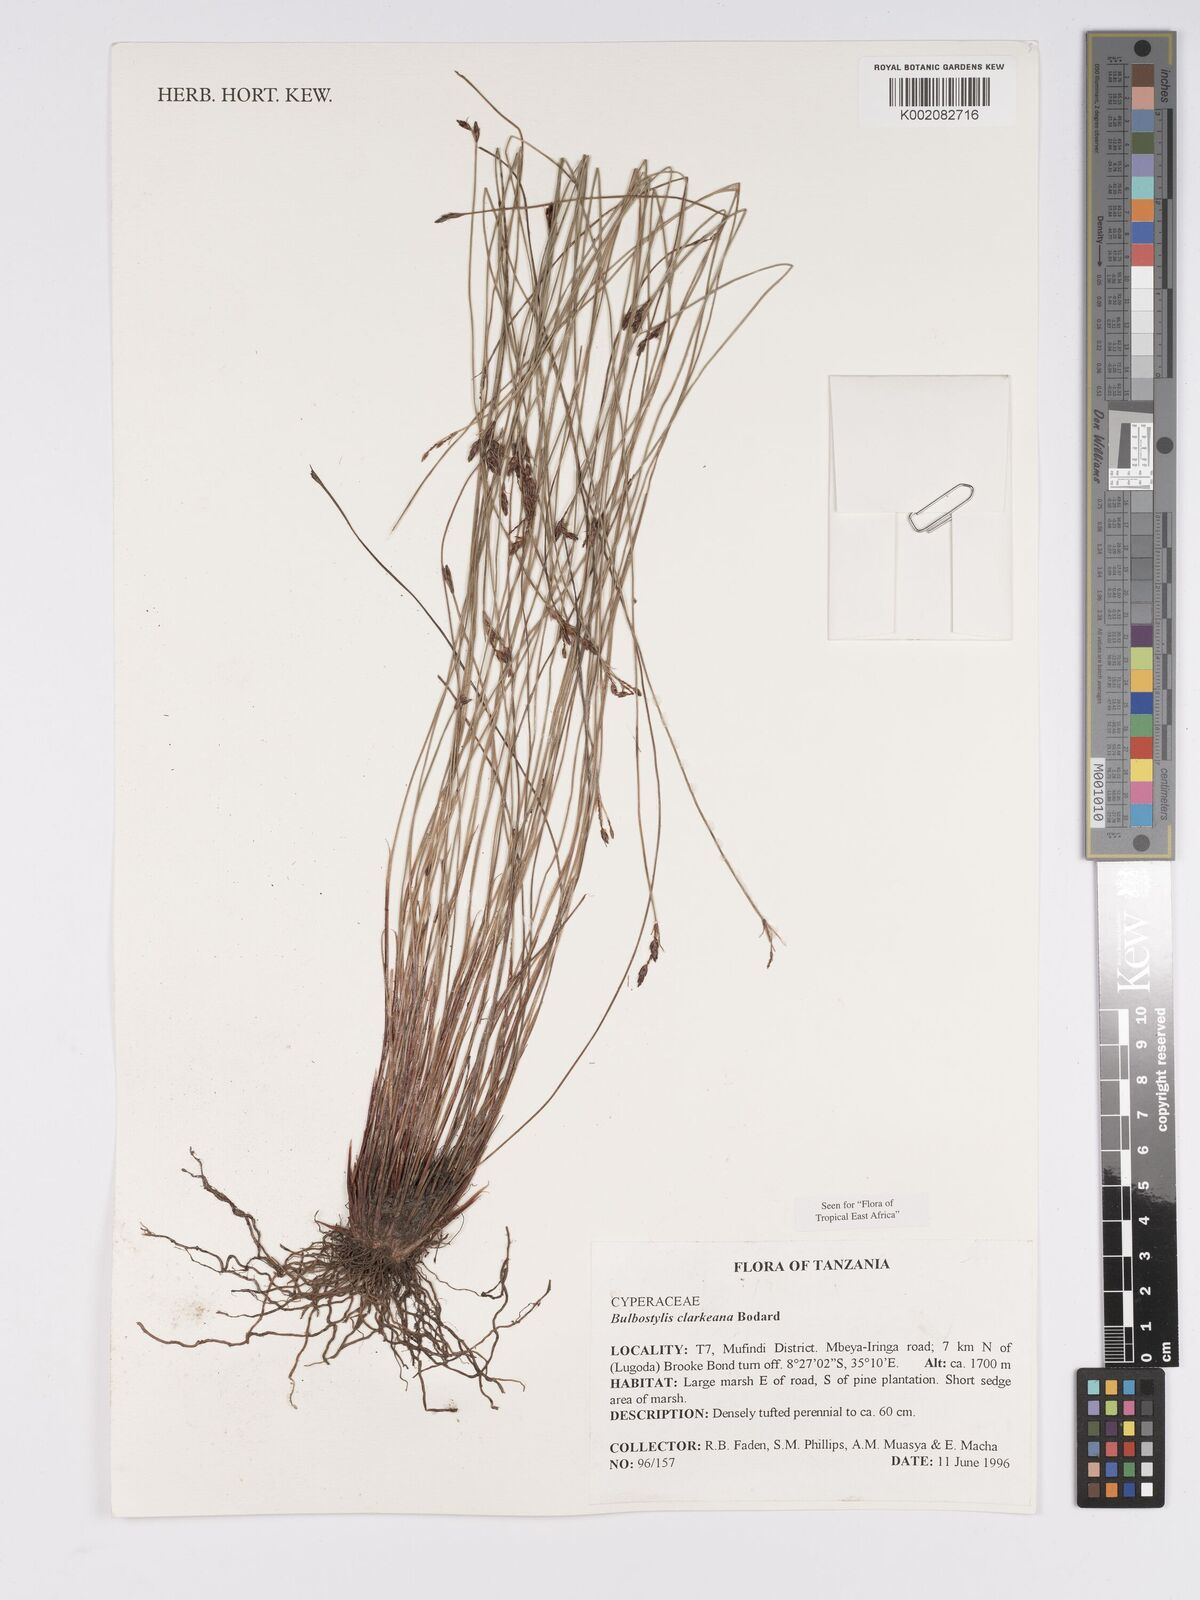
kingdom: Plantae
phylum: Tracheophyta
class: Liliopsida
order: Poales
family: Cyperaceae
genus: Bulbostylis
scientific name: Bulbostylis clarkeana
